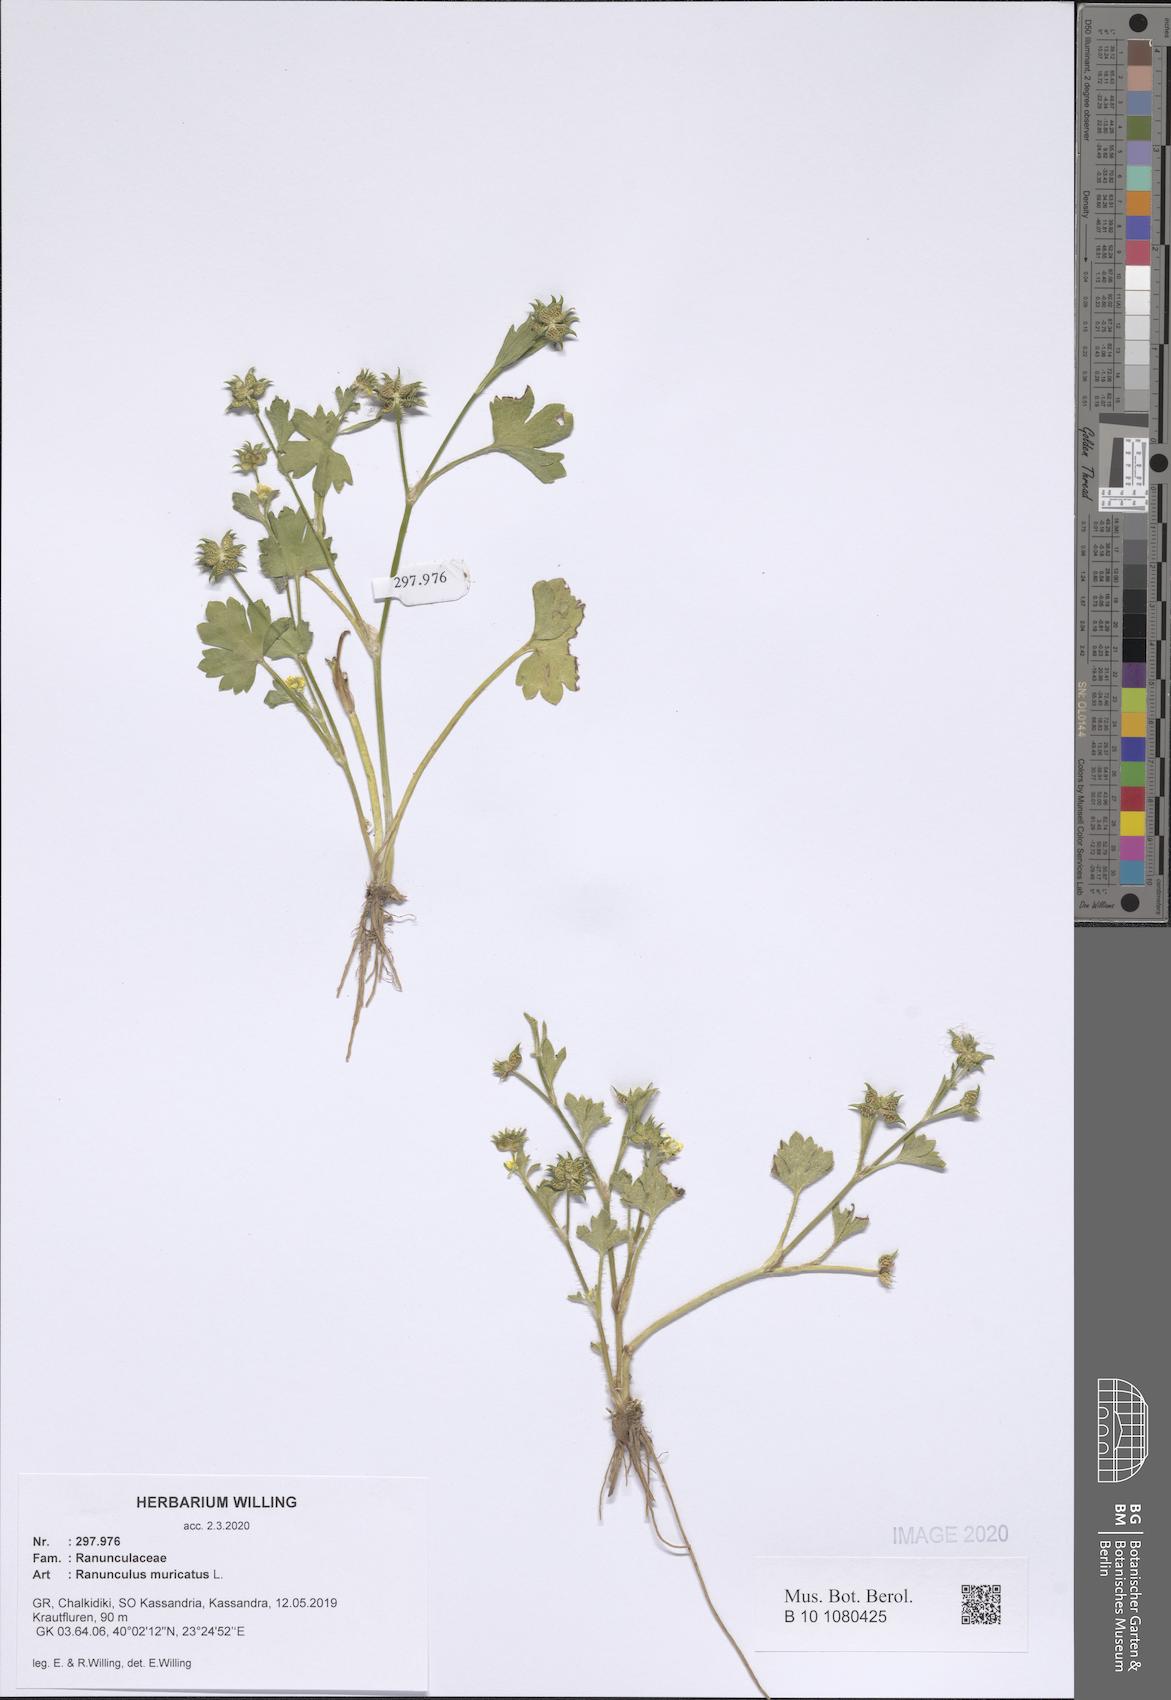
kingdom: Plantae
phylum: Tracheophyta
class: Magnoliopsida
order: Ranunculales
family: Ranunculaceae
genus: Ranunculus
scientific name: Ranunculus muricatus
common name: Rough-fruited buttercup
